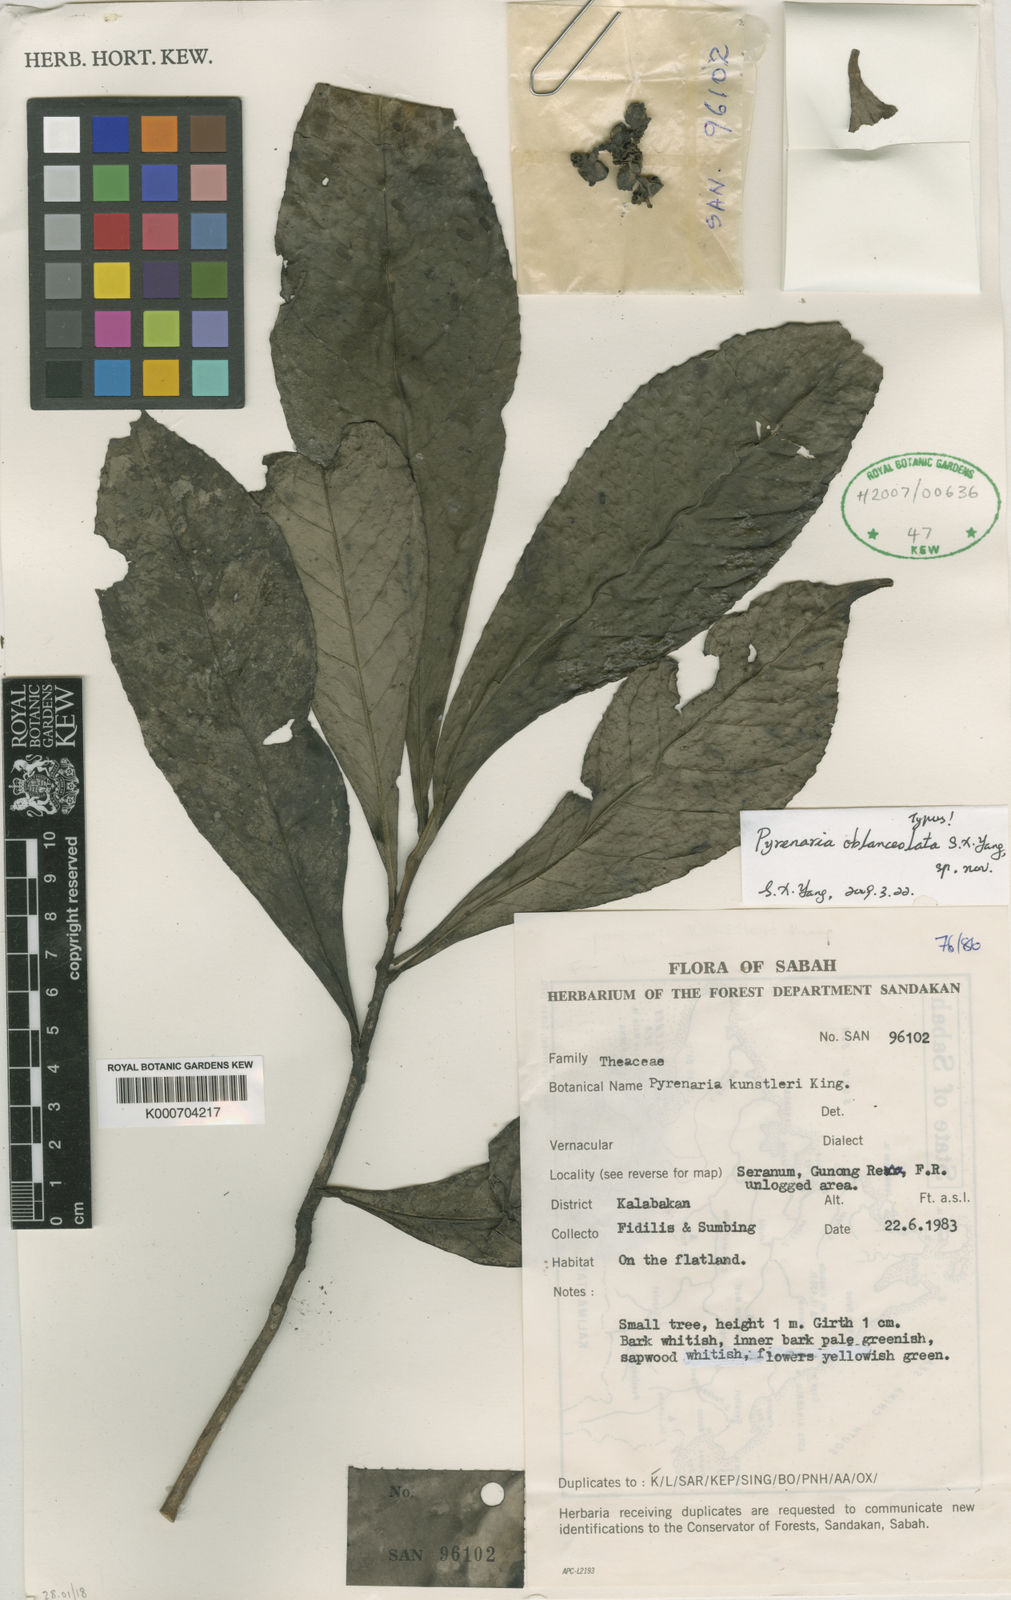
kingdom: Plantae
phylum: Tracheophyta
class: Magnoliopsida
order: Ericales
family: Theaceae
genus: Pyrenaria
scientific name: Pyrenaria
